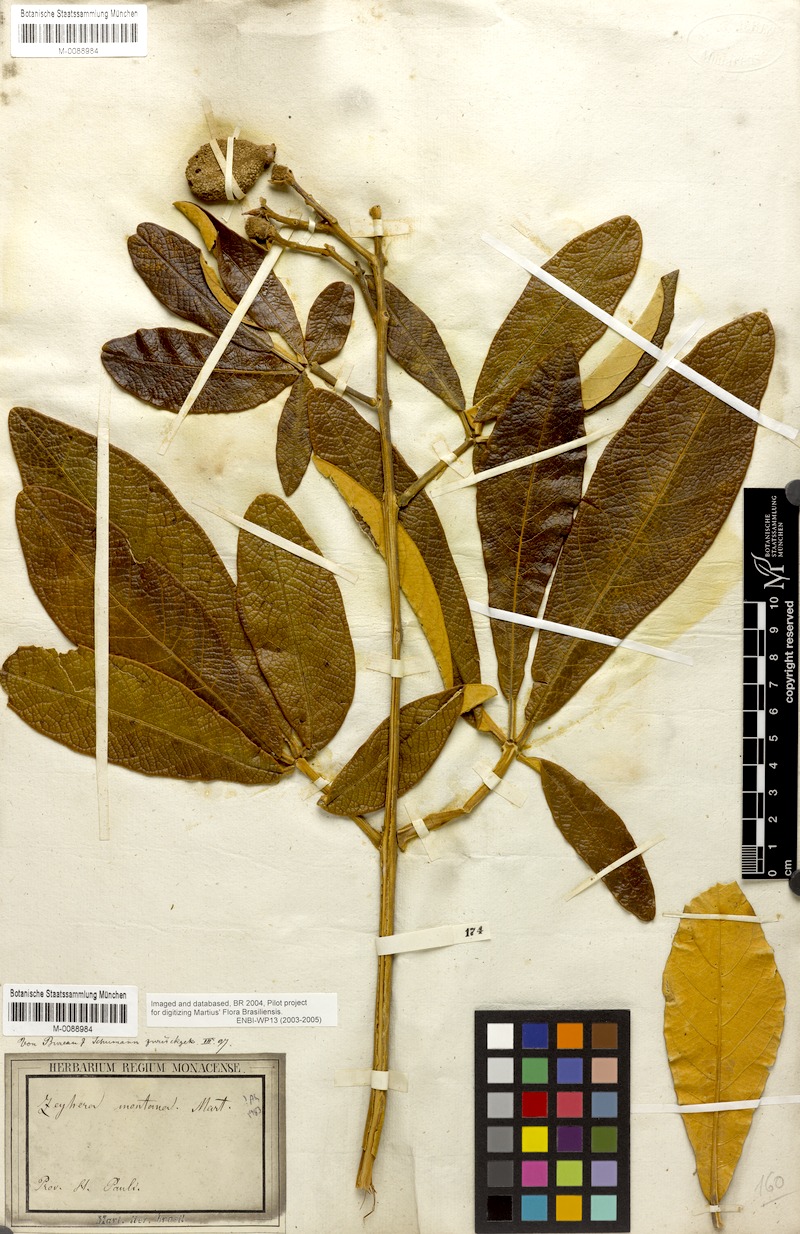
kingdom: Plantae
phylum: Tracheophyta
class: Magnoliopsida
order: Lamiales
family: Bignoniaceae
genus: Zeyheria
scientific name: Zeyheria montana
